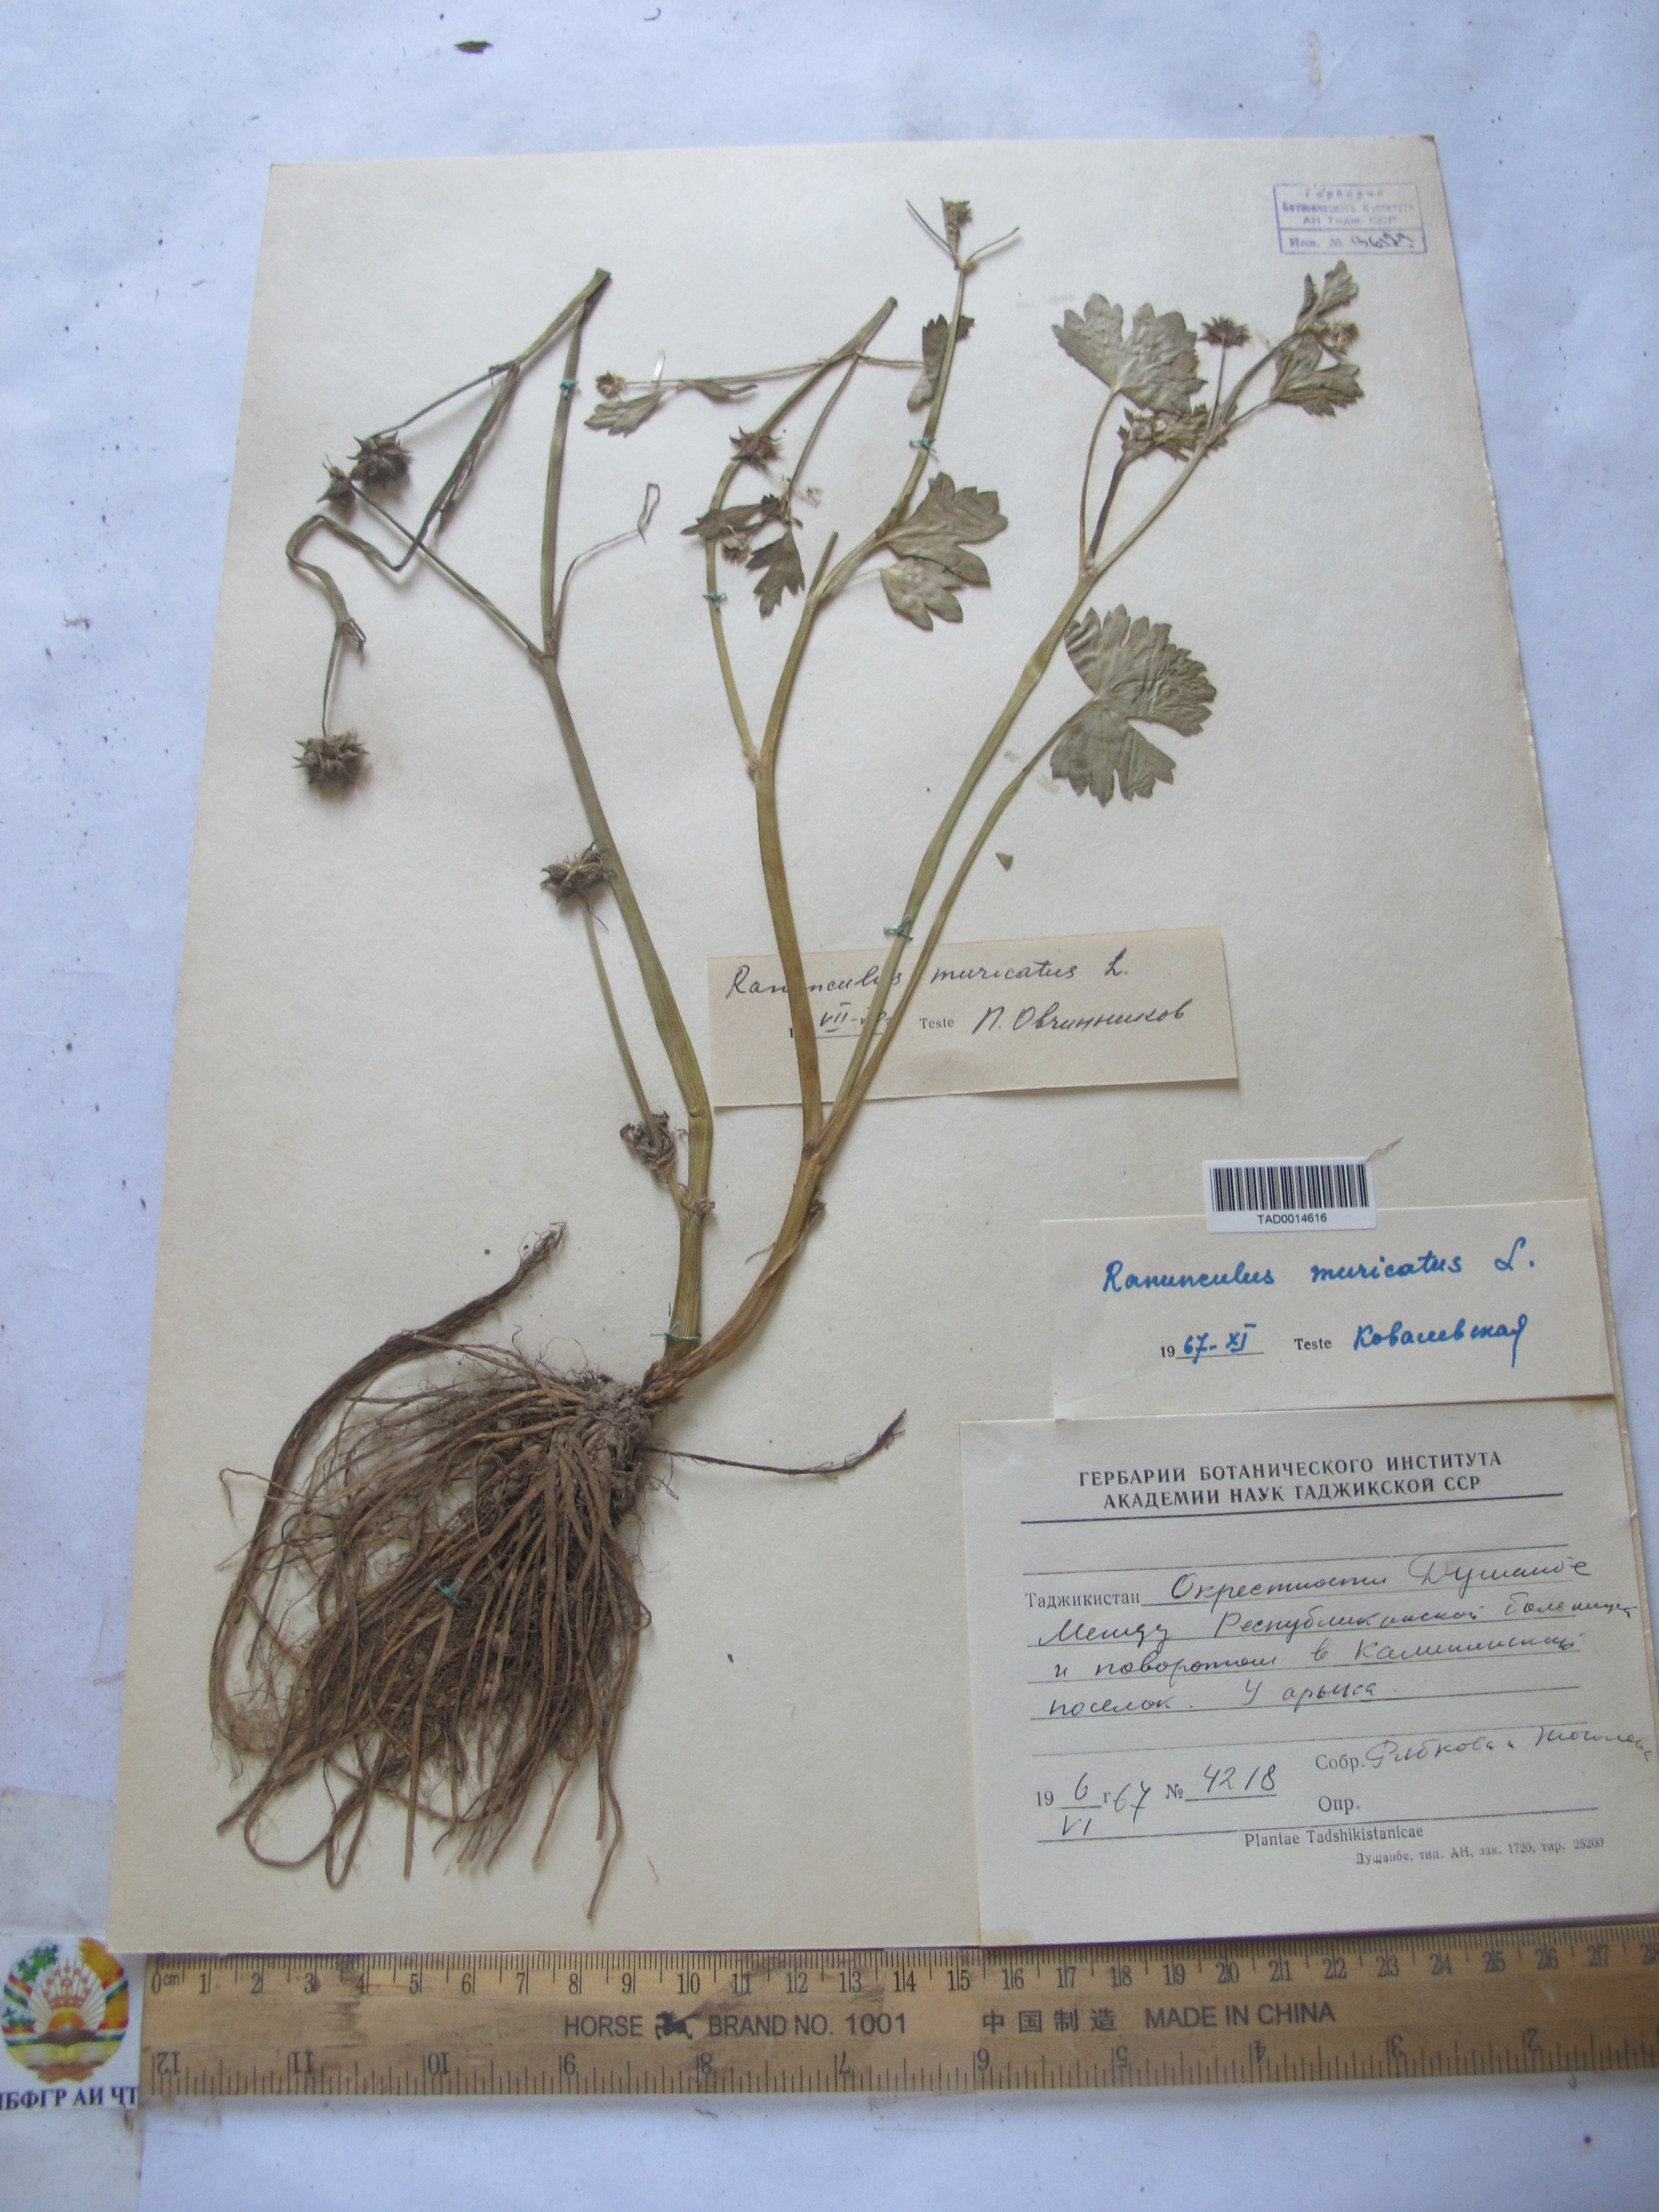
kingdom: Plantae
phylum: Tracheophyta
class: Magnoliopsida
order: Ranunculales
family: Ranunculaceae
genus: Ranunculus
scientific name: Ranunculus muricatus
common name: Rough-fruited buttercup
